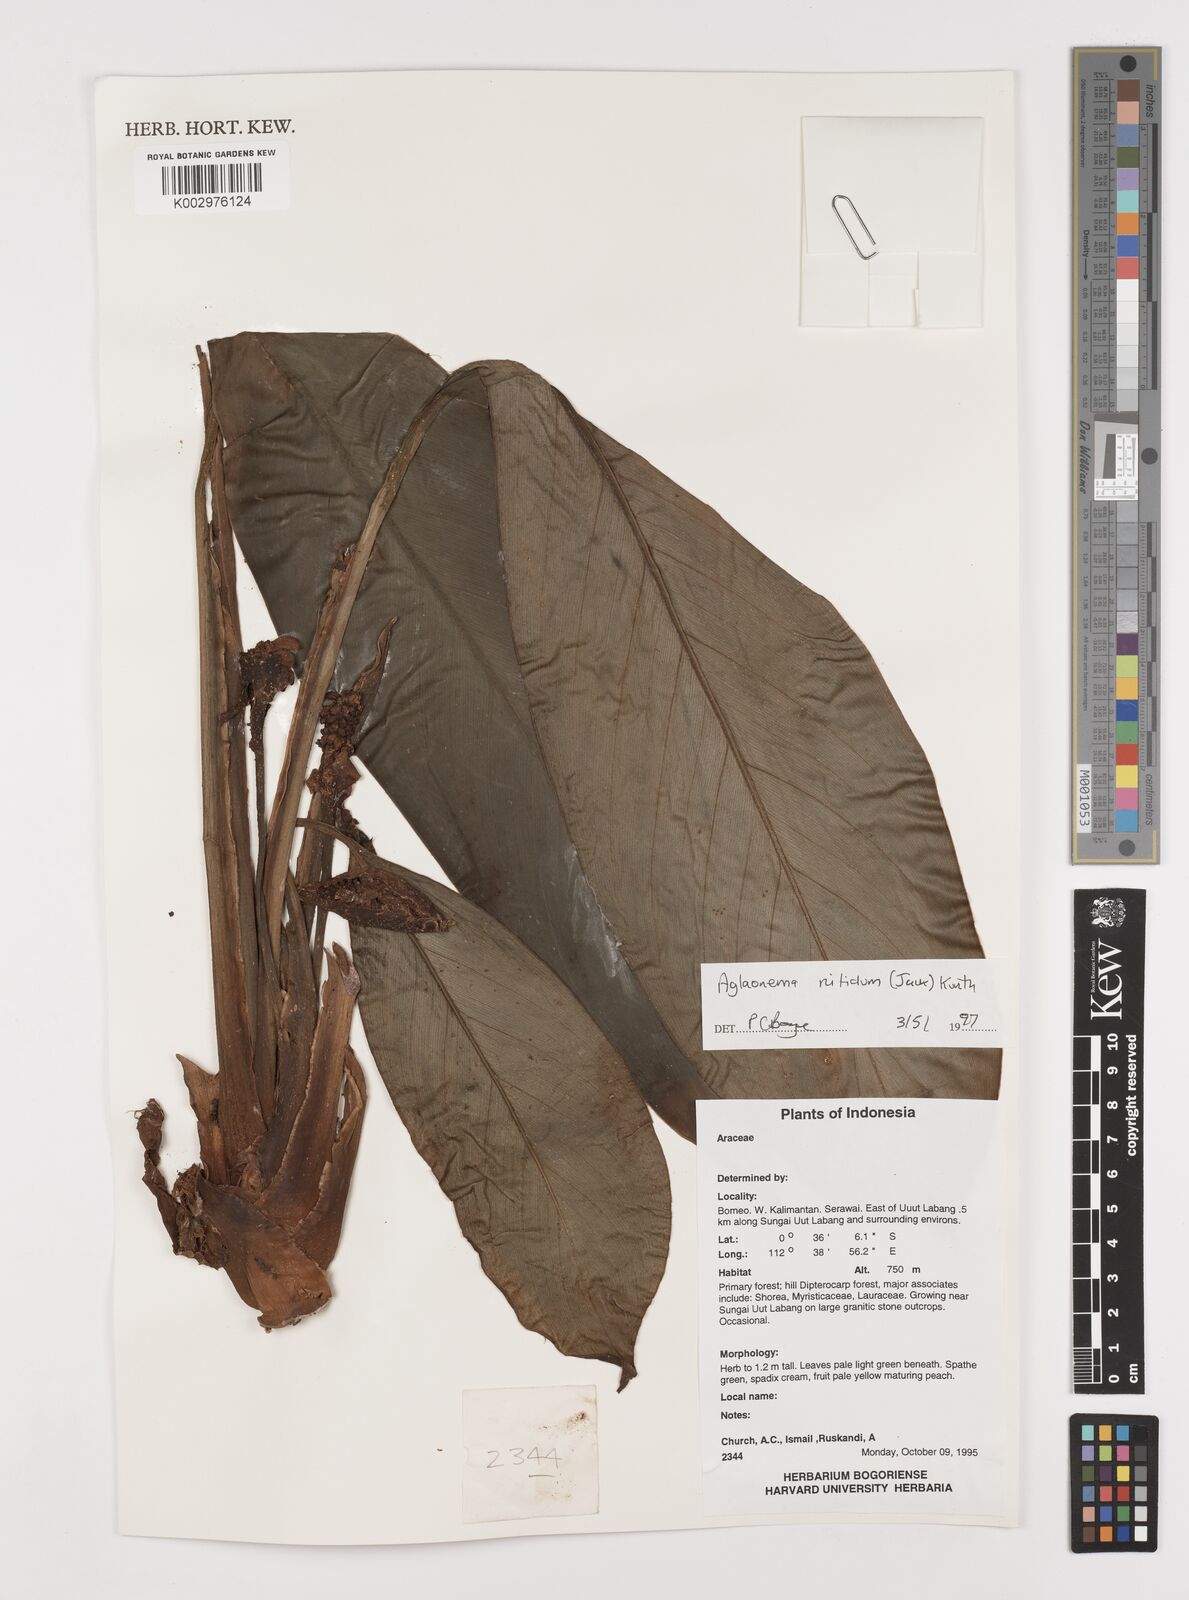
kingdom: Plantae
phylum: Tracheophyta
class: Liliopsida
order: Alismatales
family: Araceae
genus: Aglaonema
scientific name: Aglaonema nitidum
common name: Aglaonema aroid
